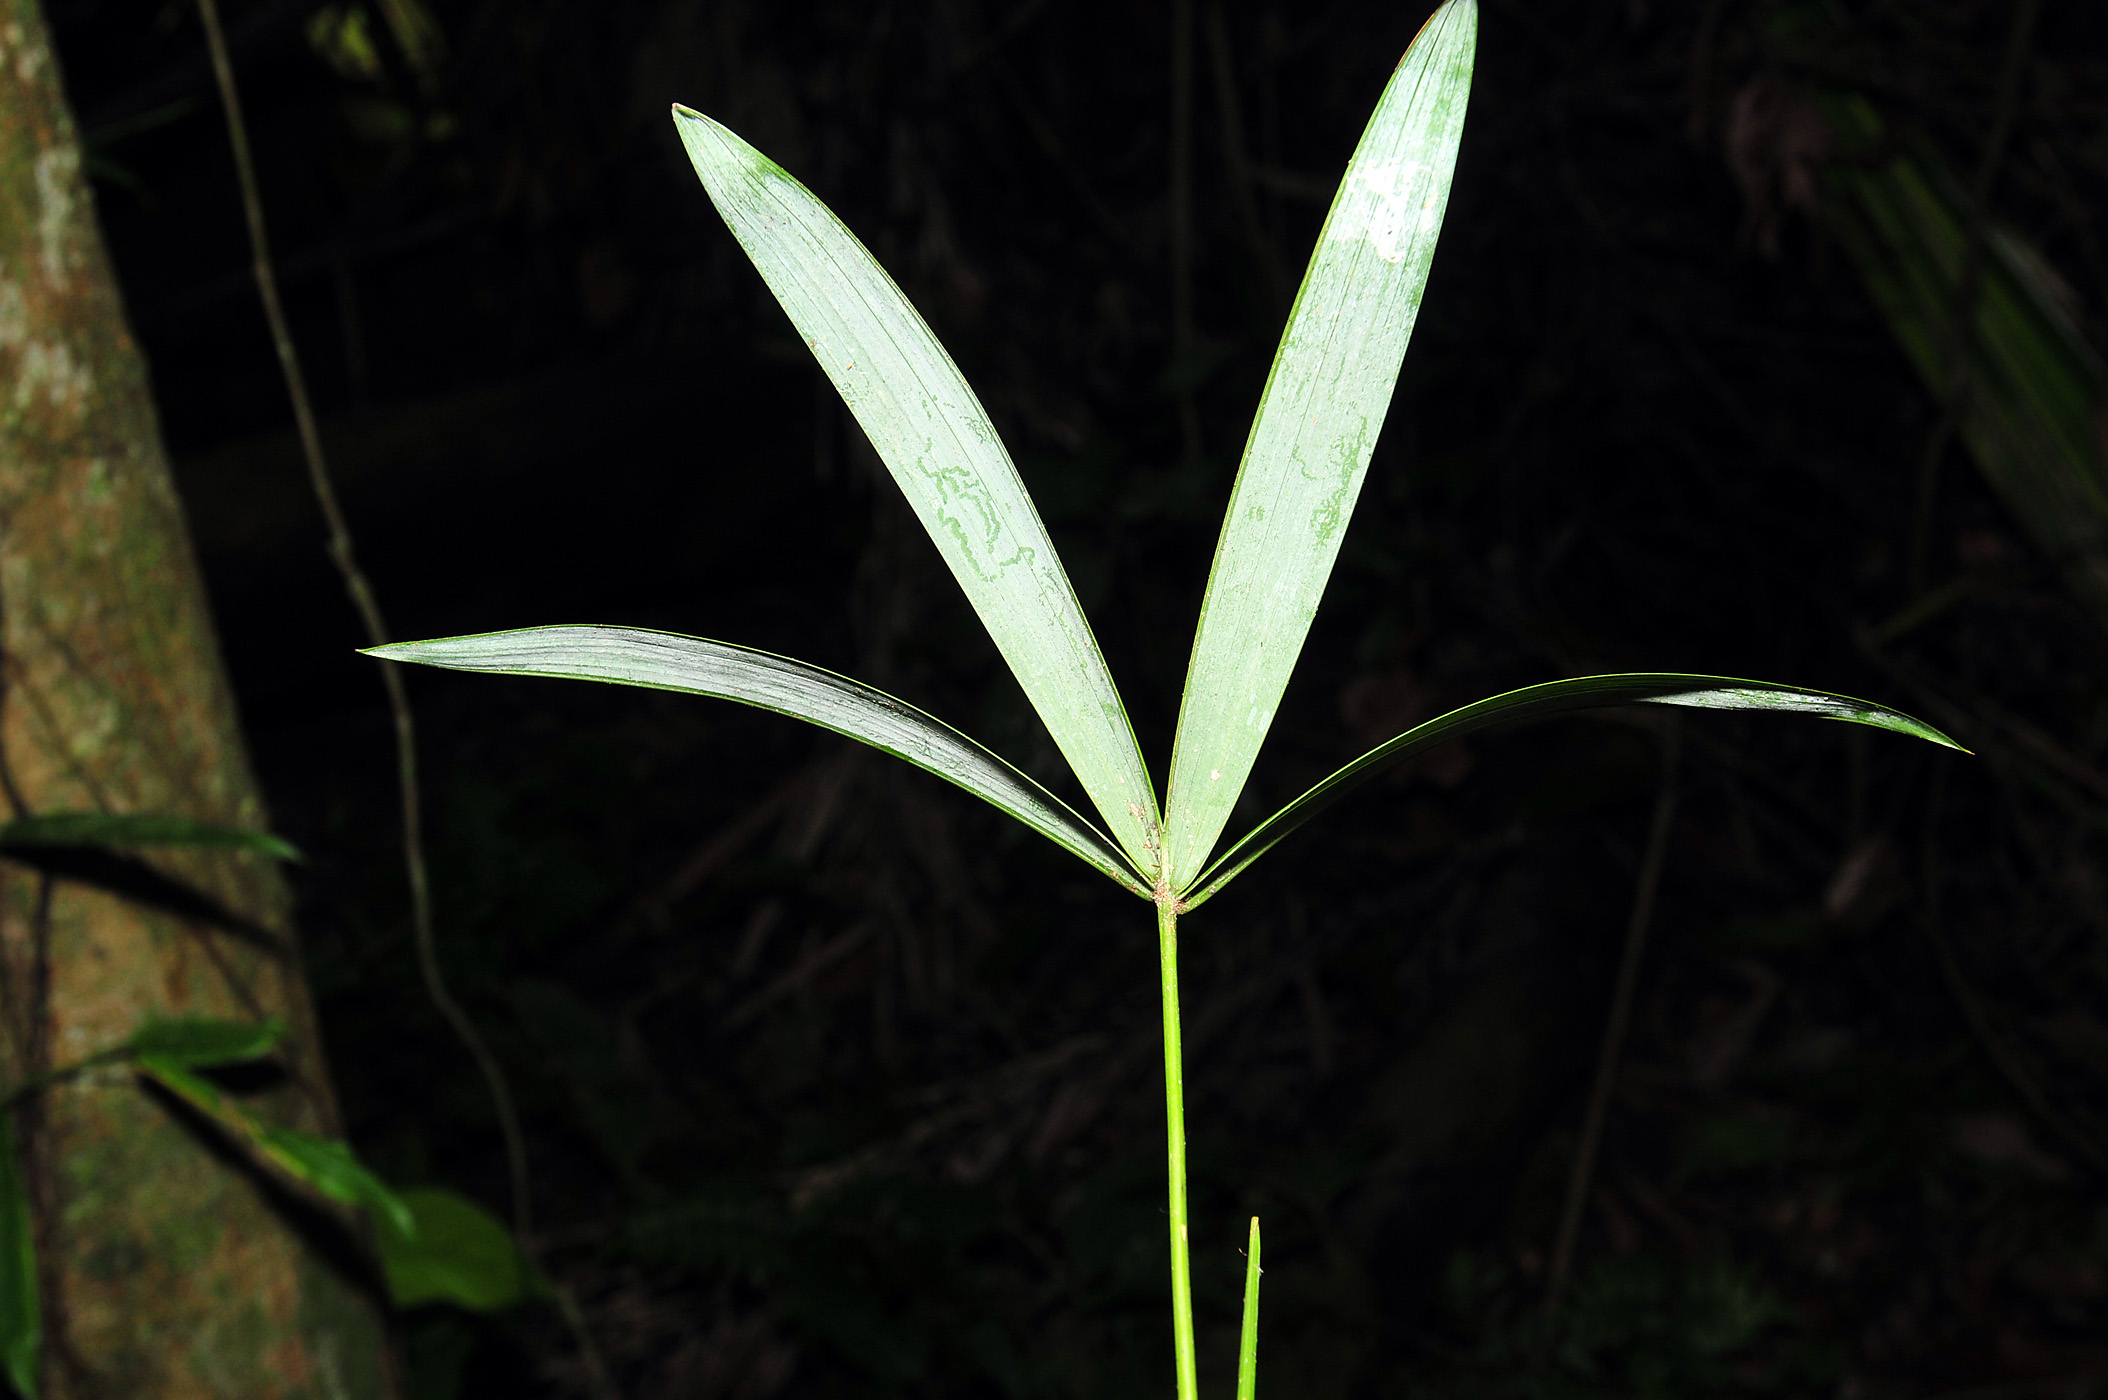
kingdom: Plantae
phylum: Tracheophyta
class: Liliopsida
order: Arecales
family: Arecaceae
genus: Oenocarpus
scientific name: Oenocarpus mapora
